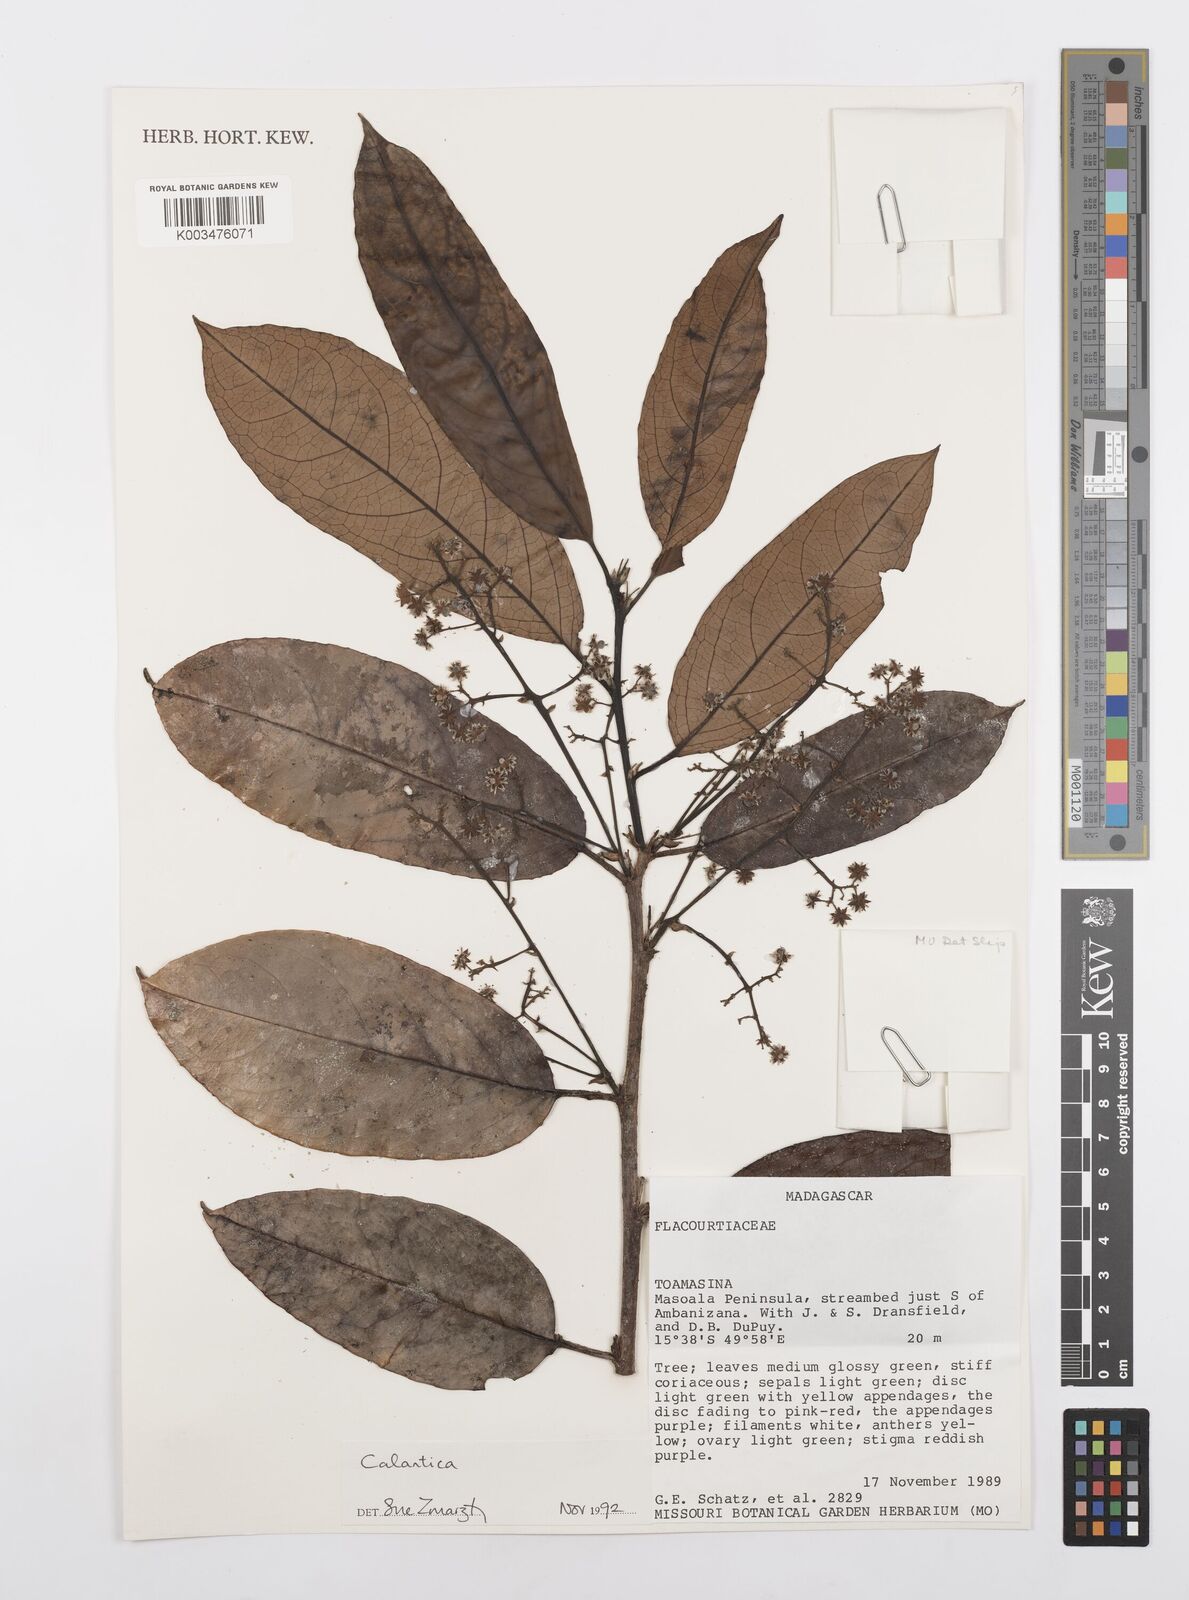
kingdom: Plantae
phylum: Tracheophyta
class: Magnoliopsida
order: Malpighiales
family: Salicaceae
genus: Calantica
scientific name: Calantica
